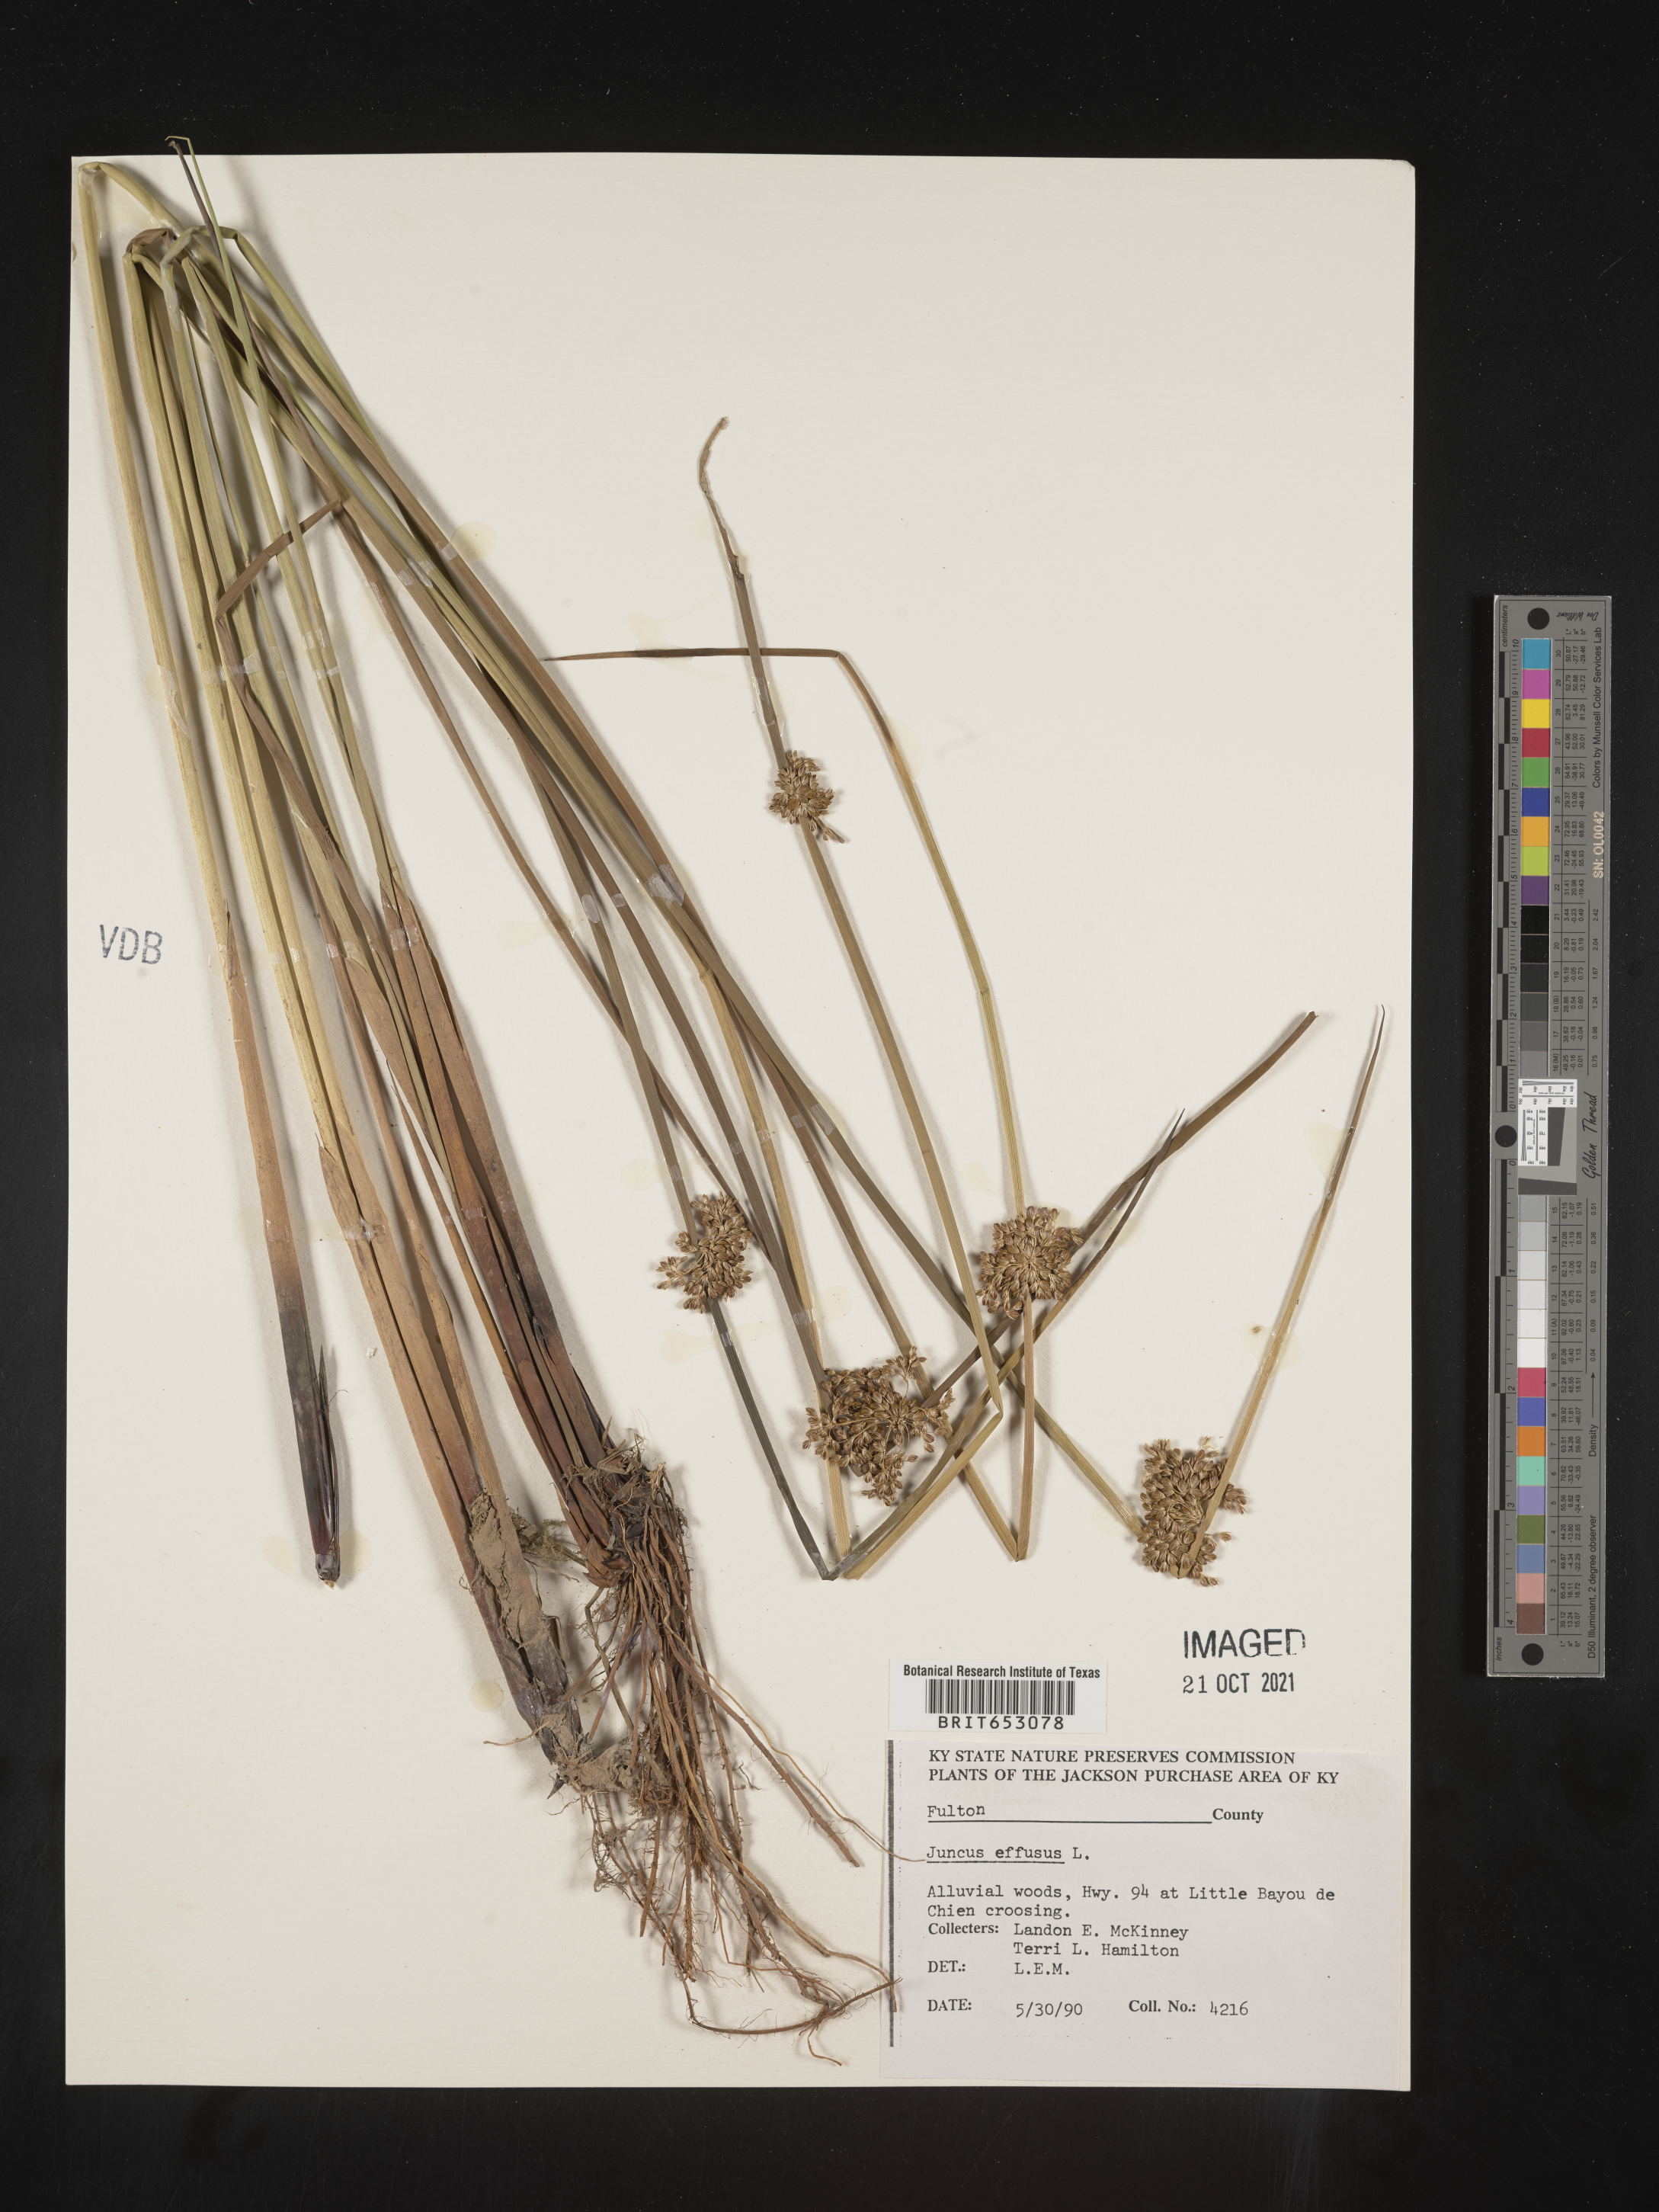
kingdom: Plantae
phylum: Tracheophyta
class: Liliopsida
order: Poales
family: Juncaceae
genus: Juncus
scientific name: Juncus effusus
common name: Soft rush
